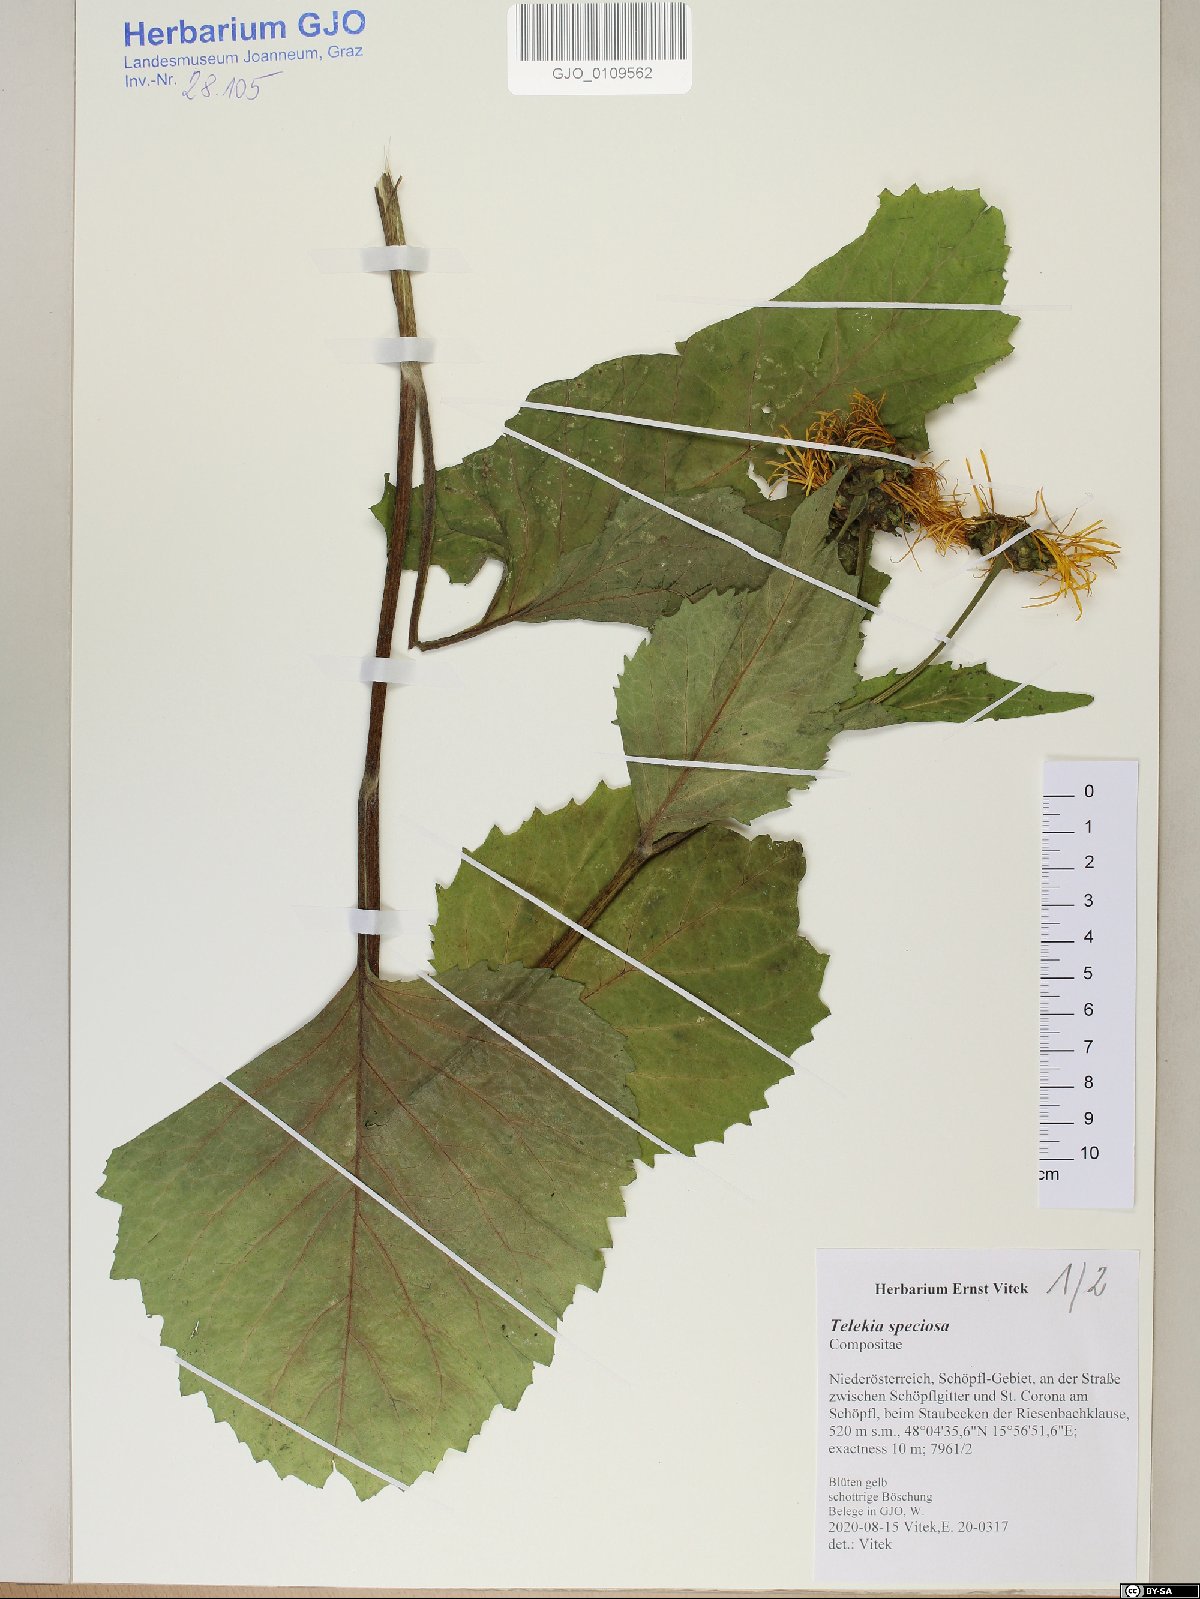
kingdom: Plantae
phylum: Tracheophyta
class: Magnoliopsida
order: Asterales
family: Asteraceae
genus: Telekia
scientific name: Telekia speciosa
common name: Yellow oxeye
